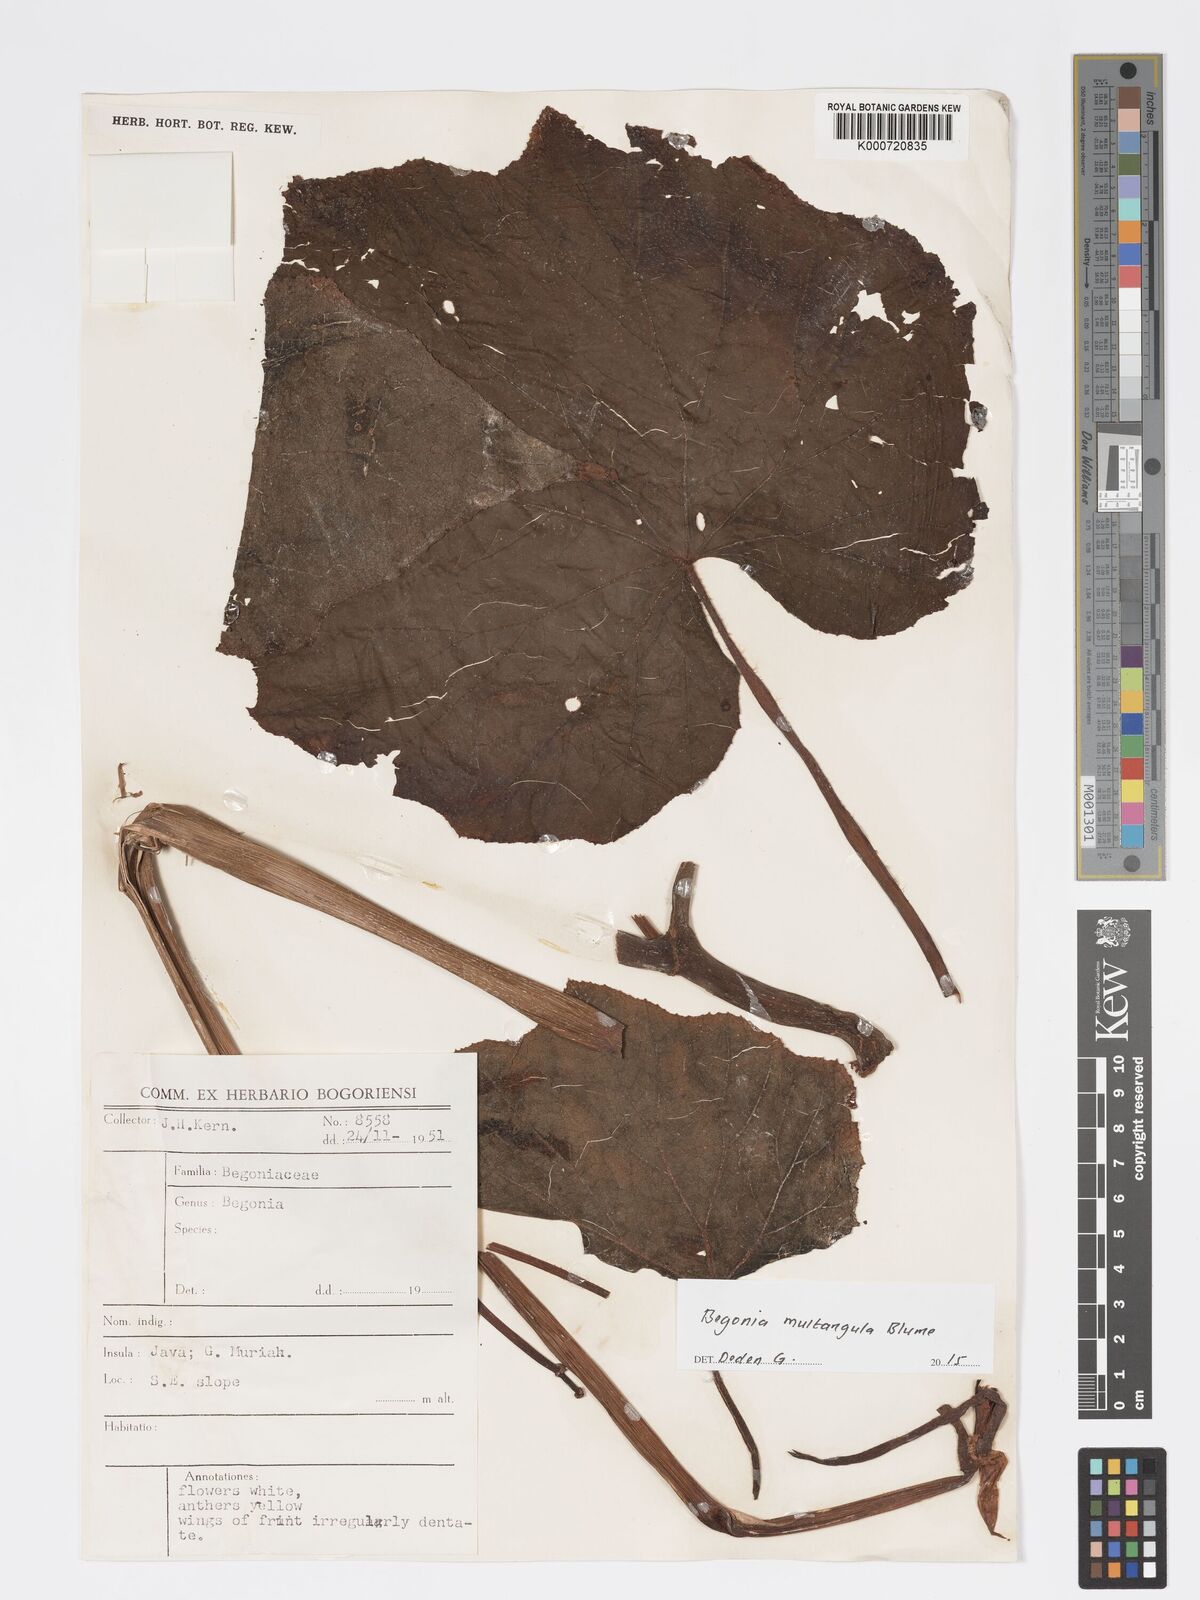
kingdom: Plantae
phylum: Tracheophyta
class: Magnoliopsida
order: Cucurbitales
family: Begoniaceae
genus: Begonia
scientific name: Begonia multangula
